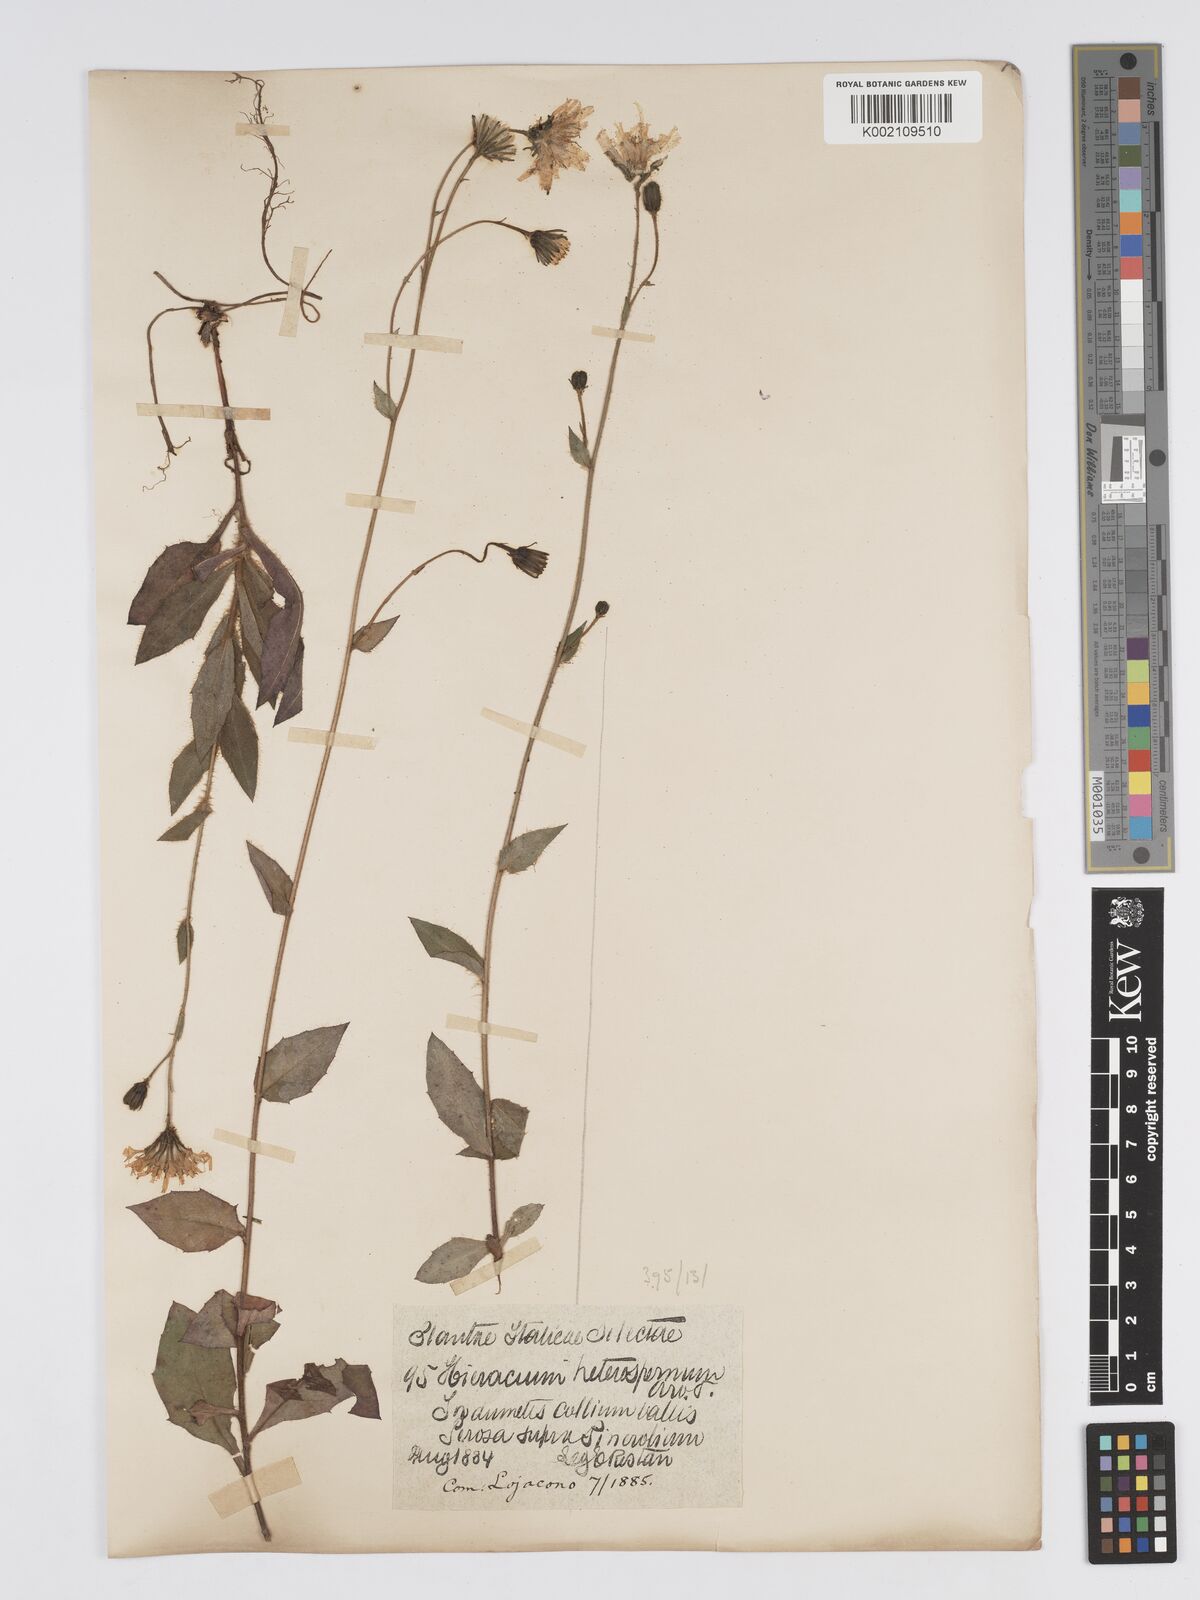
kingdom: Plantae
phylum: Tracheophyta
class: Magnoliopsida
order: Asterales
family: Asteraceae
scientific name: Asteraceae
